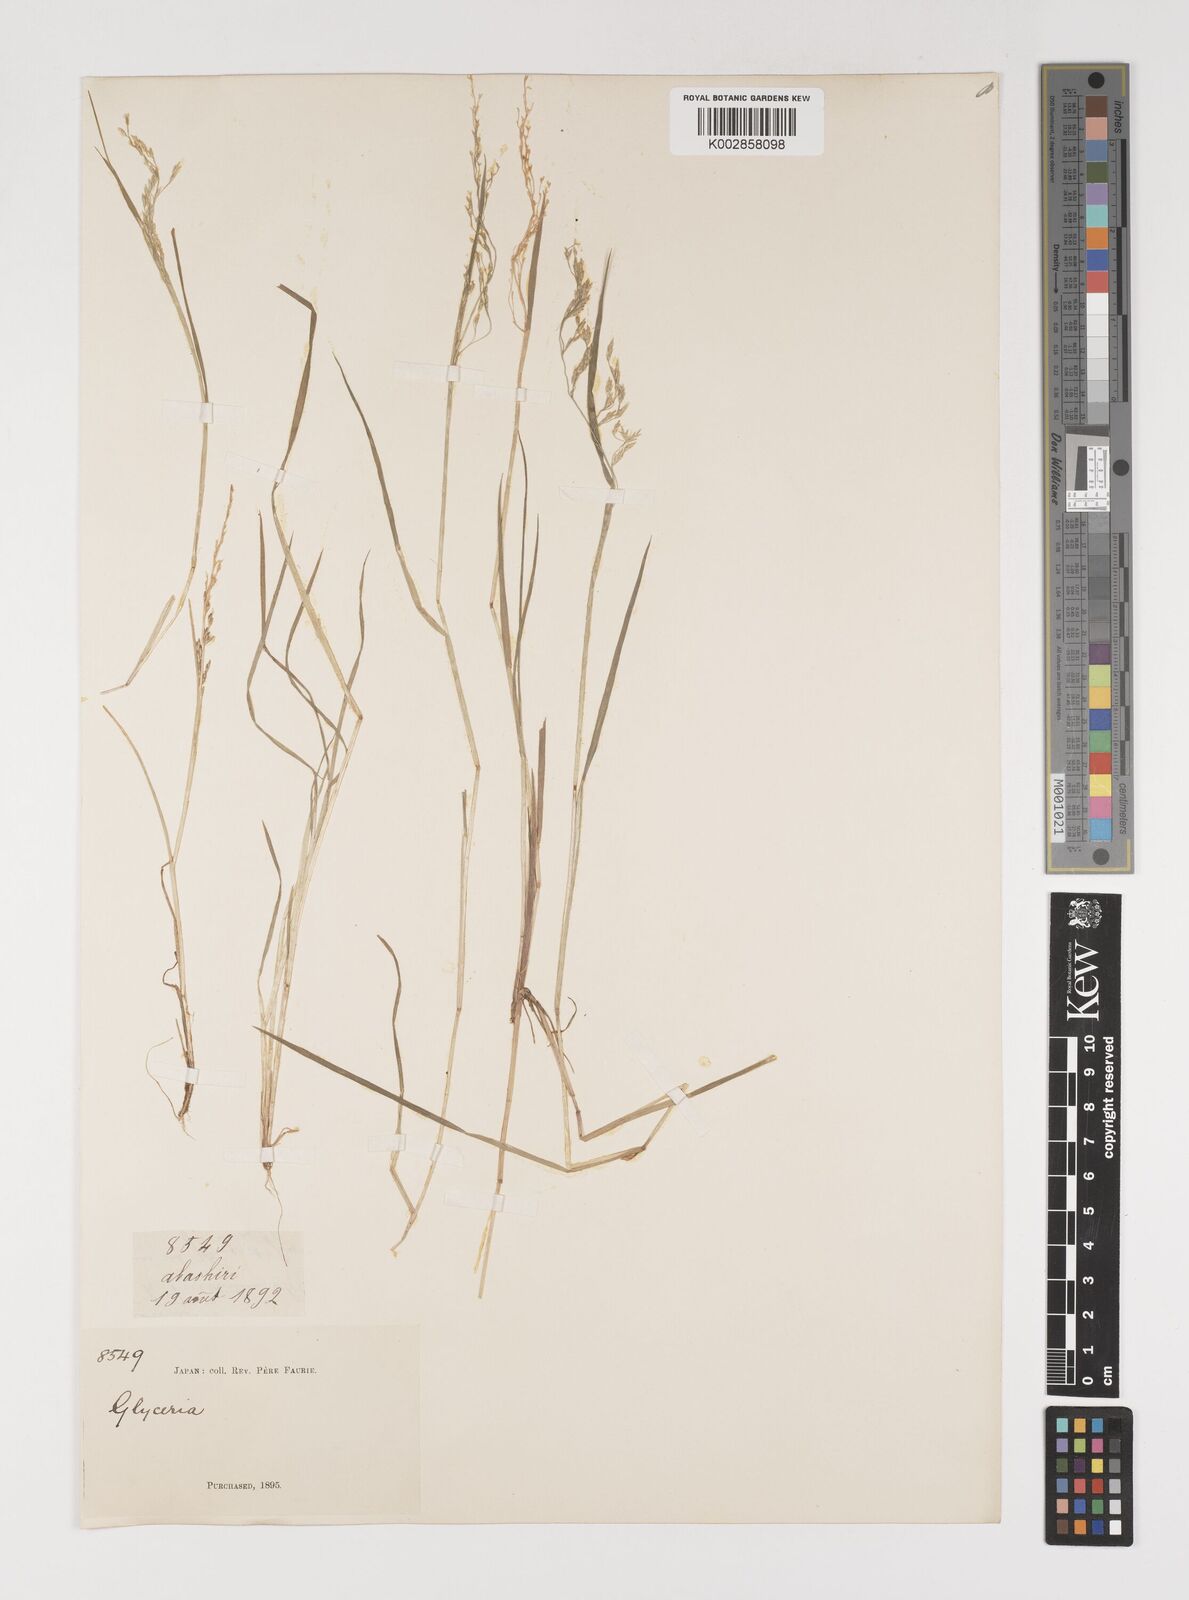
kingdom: Plantae
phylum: Tracheophyta
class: Liliopsida
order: Poales
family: Poaceae
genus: Torreyochloa
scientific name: Torreyochloa natans
